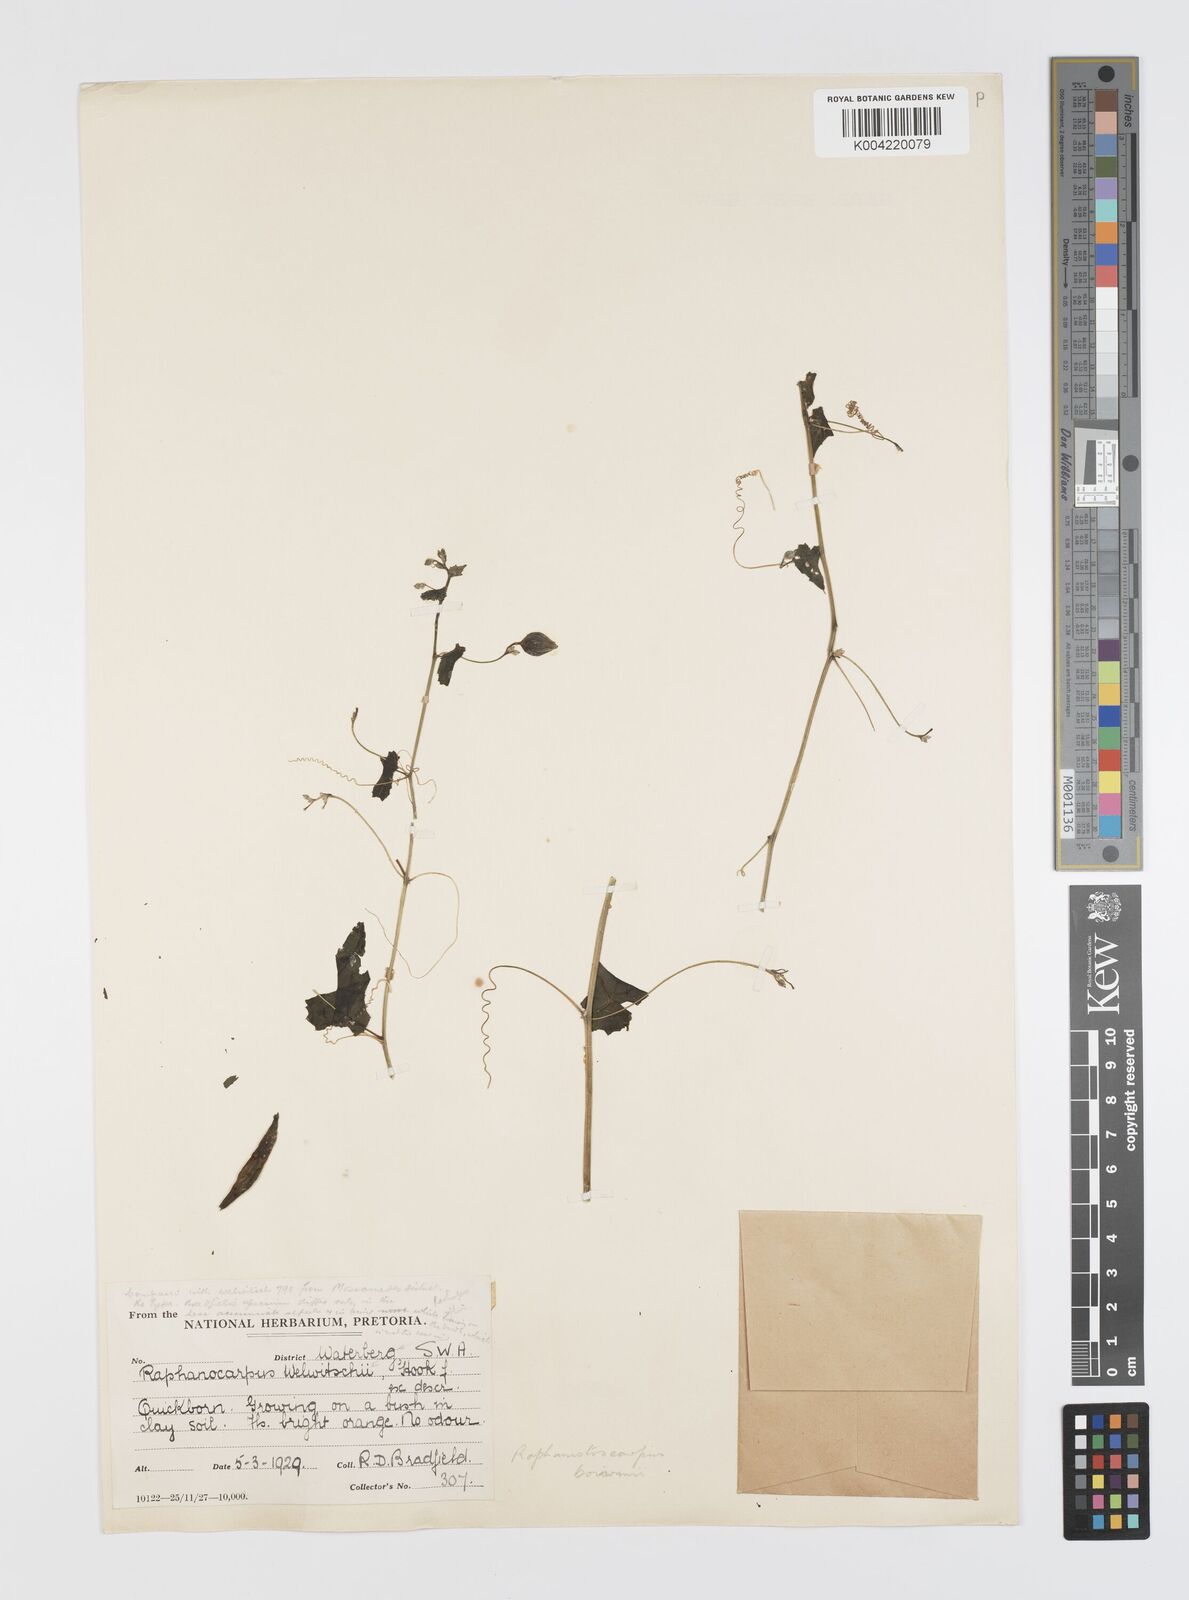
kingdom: Plantae
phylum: Tracheophyta
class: Magnoliopsida
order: Cucurbitales
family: Cucurbitaceae
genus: Momordica
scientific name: Momordica boivinii
